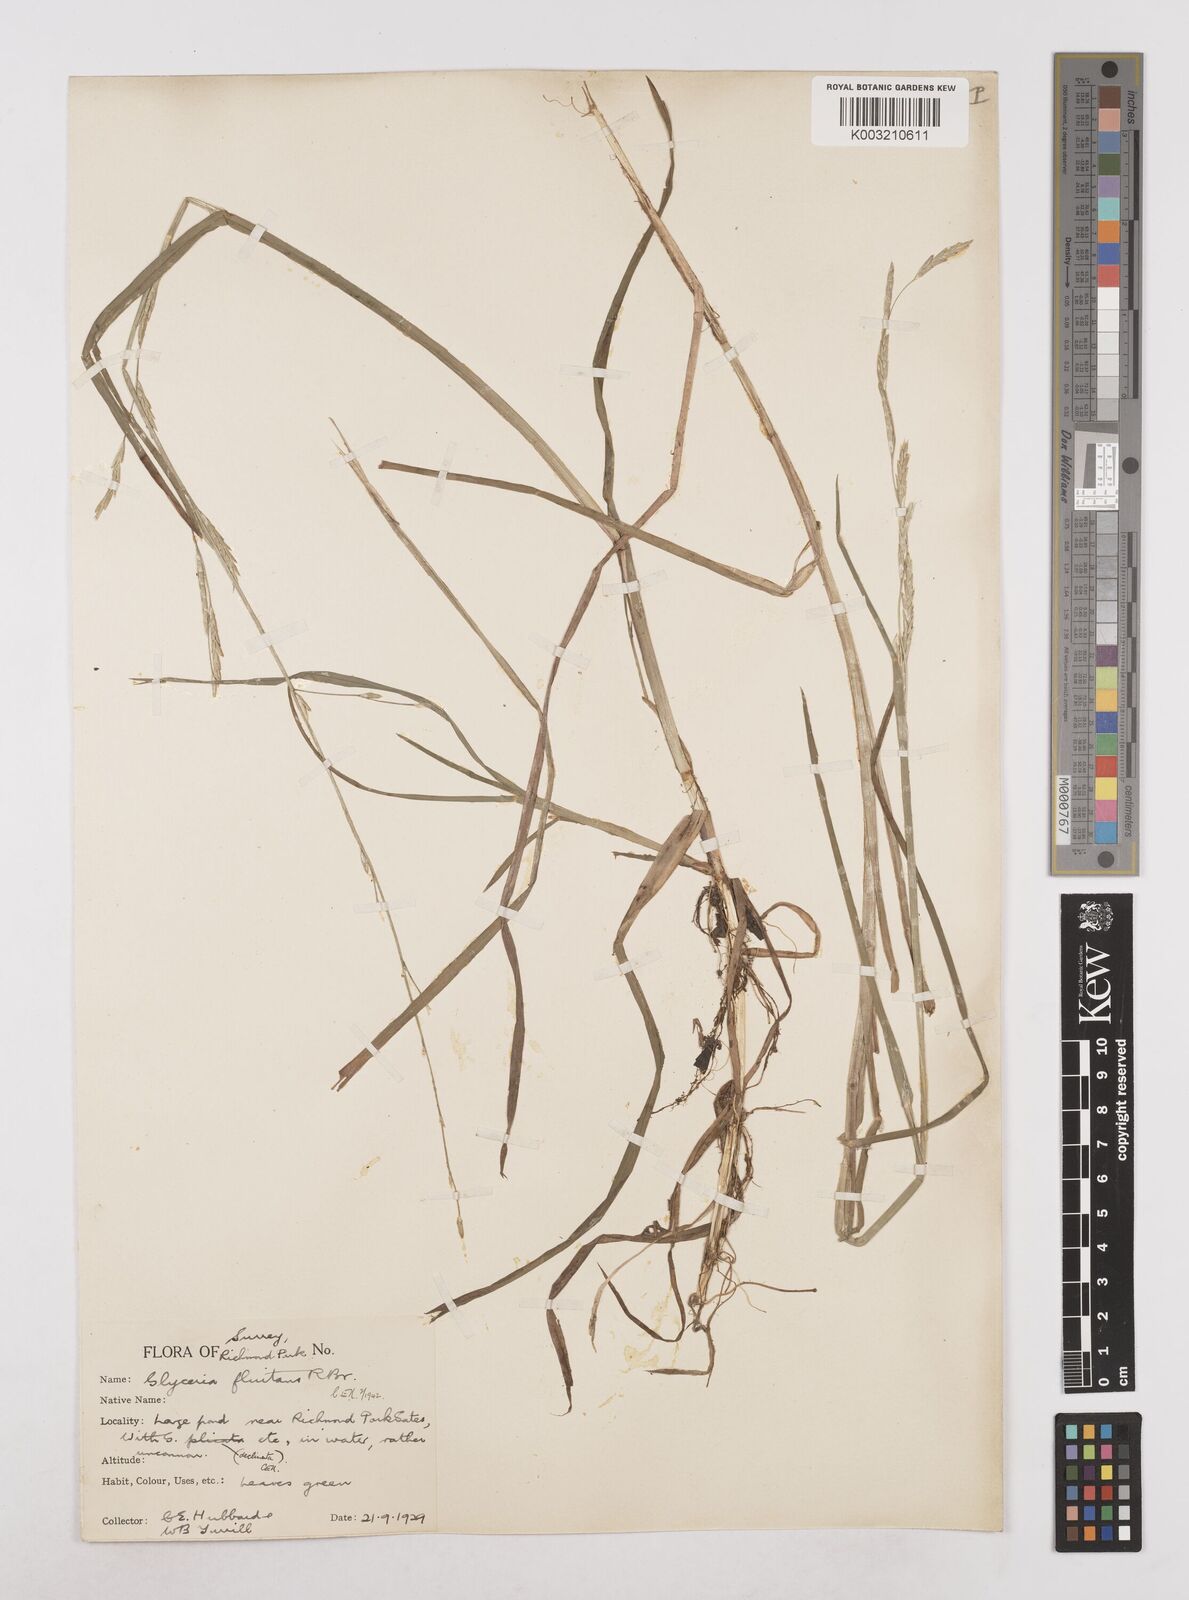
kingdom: Plantae
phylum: Tracheophyta
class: Liliopsida
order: Poales
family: Poaceae
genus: Glyceria
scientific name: Glyceria fluitans
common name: Floating sweet-grass
